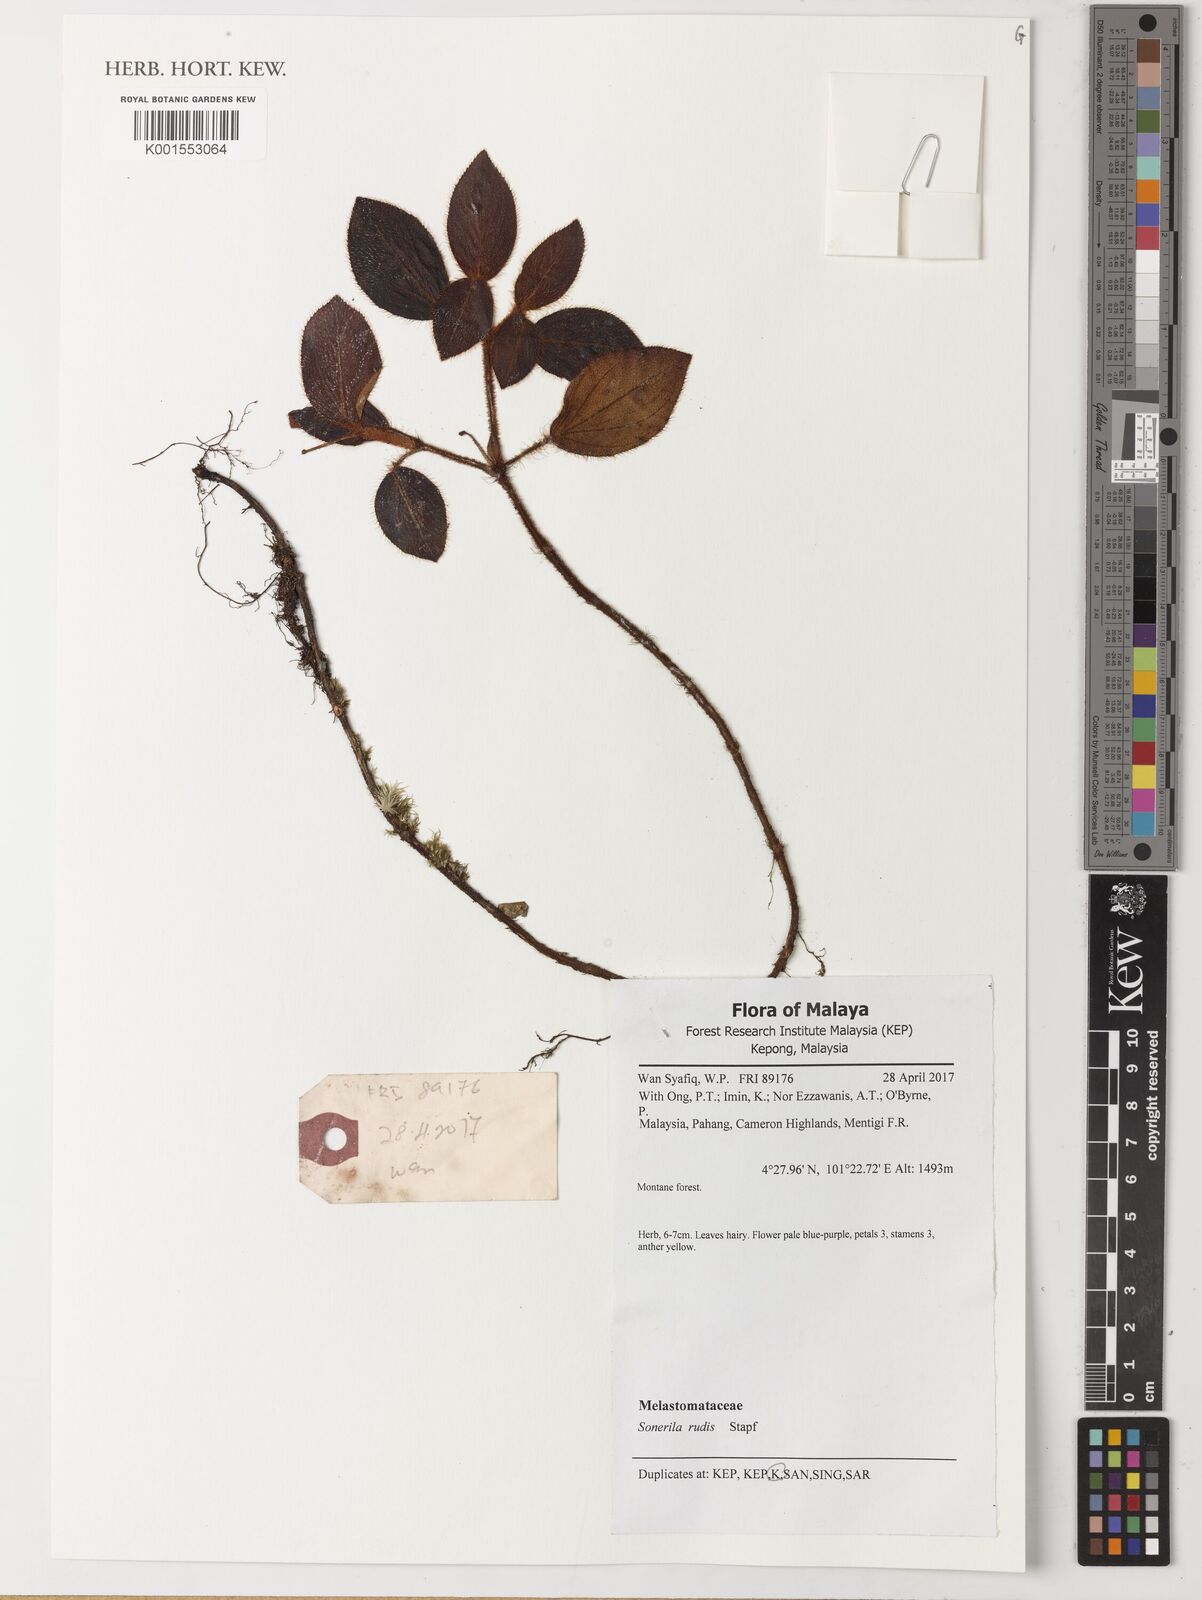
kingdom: Plantae
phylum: Tracheophyta
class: Magnoliopsida
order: Myrtales
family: Melastomataceae
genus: Sonerila
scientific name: Sonerila rudis
